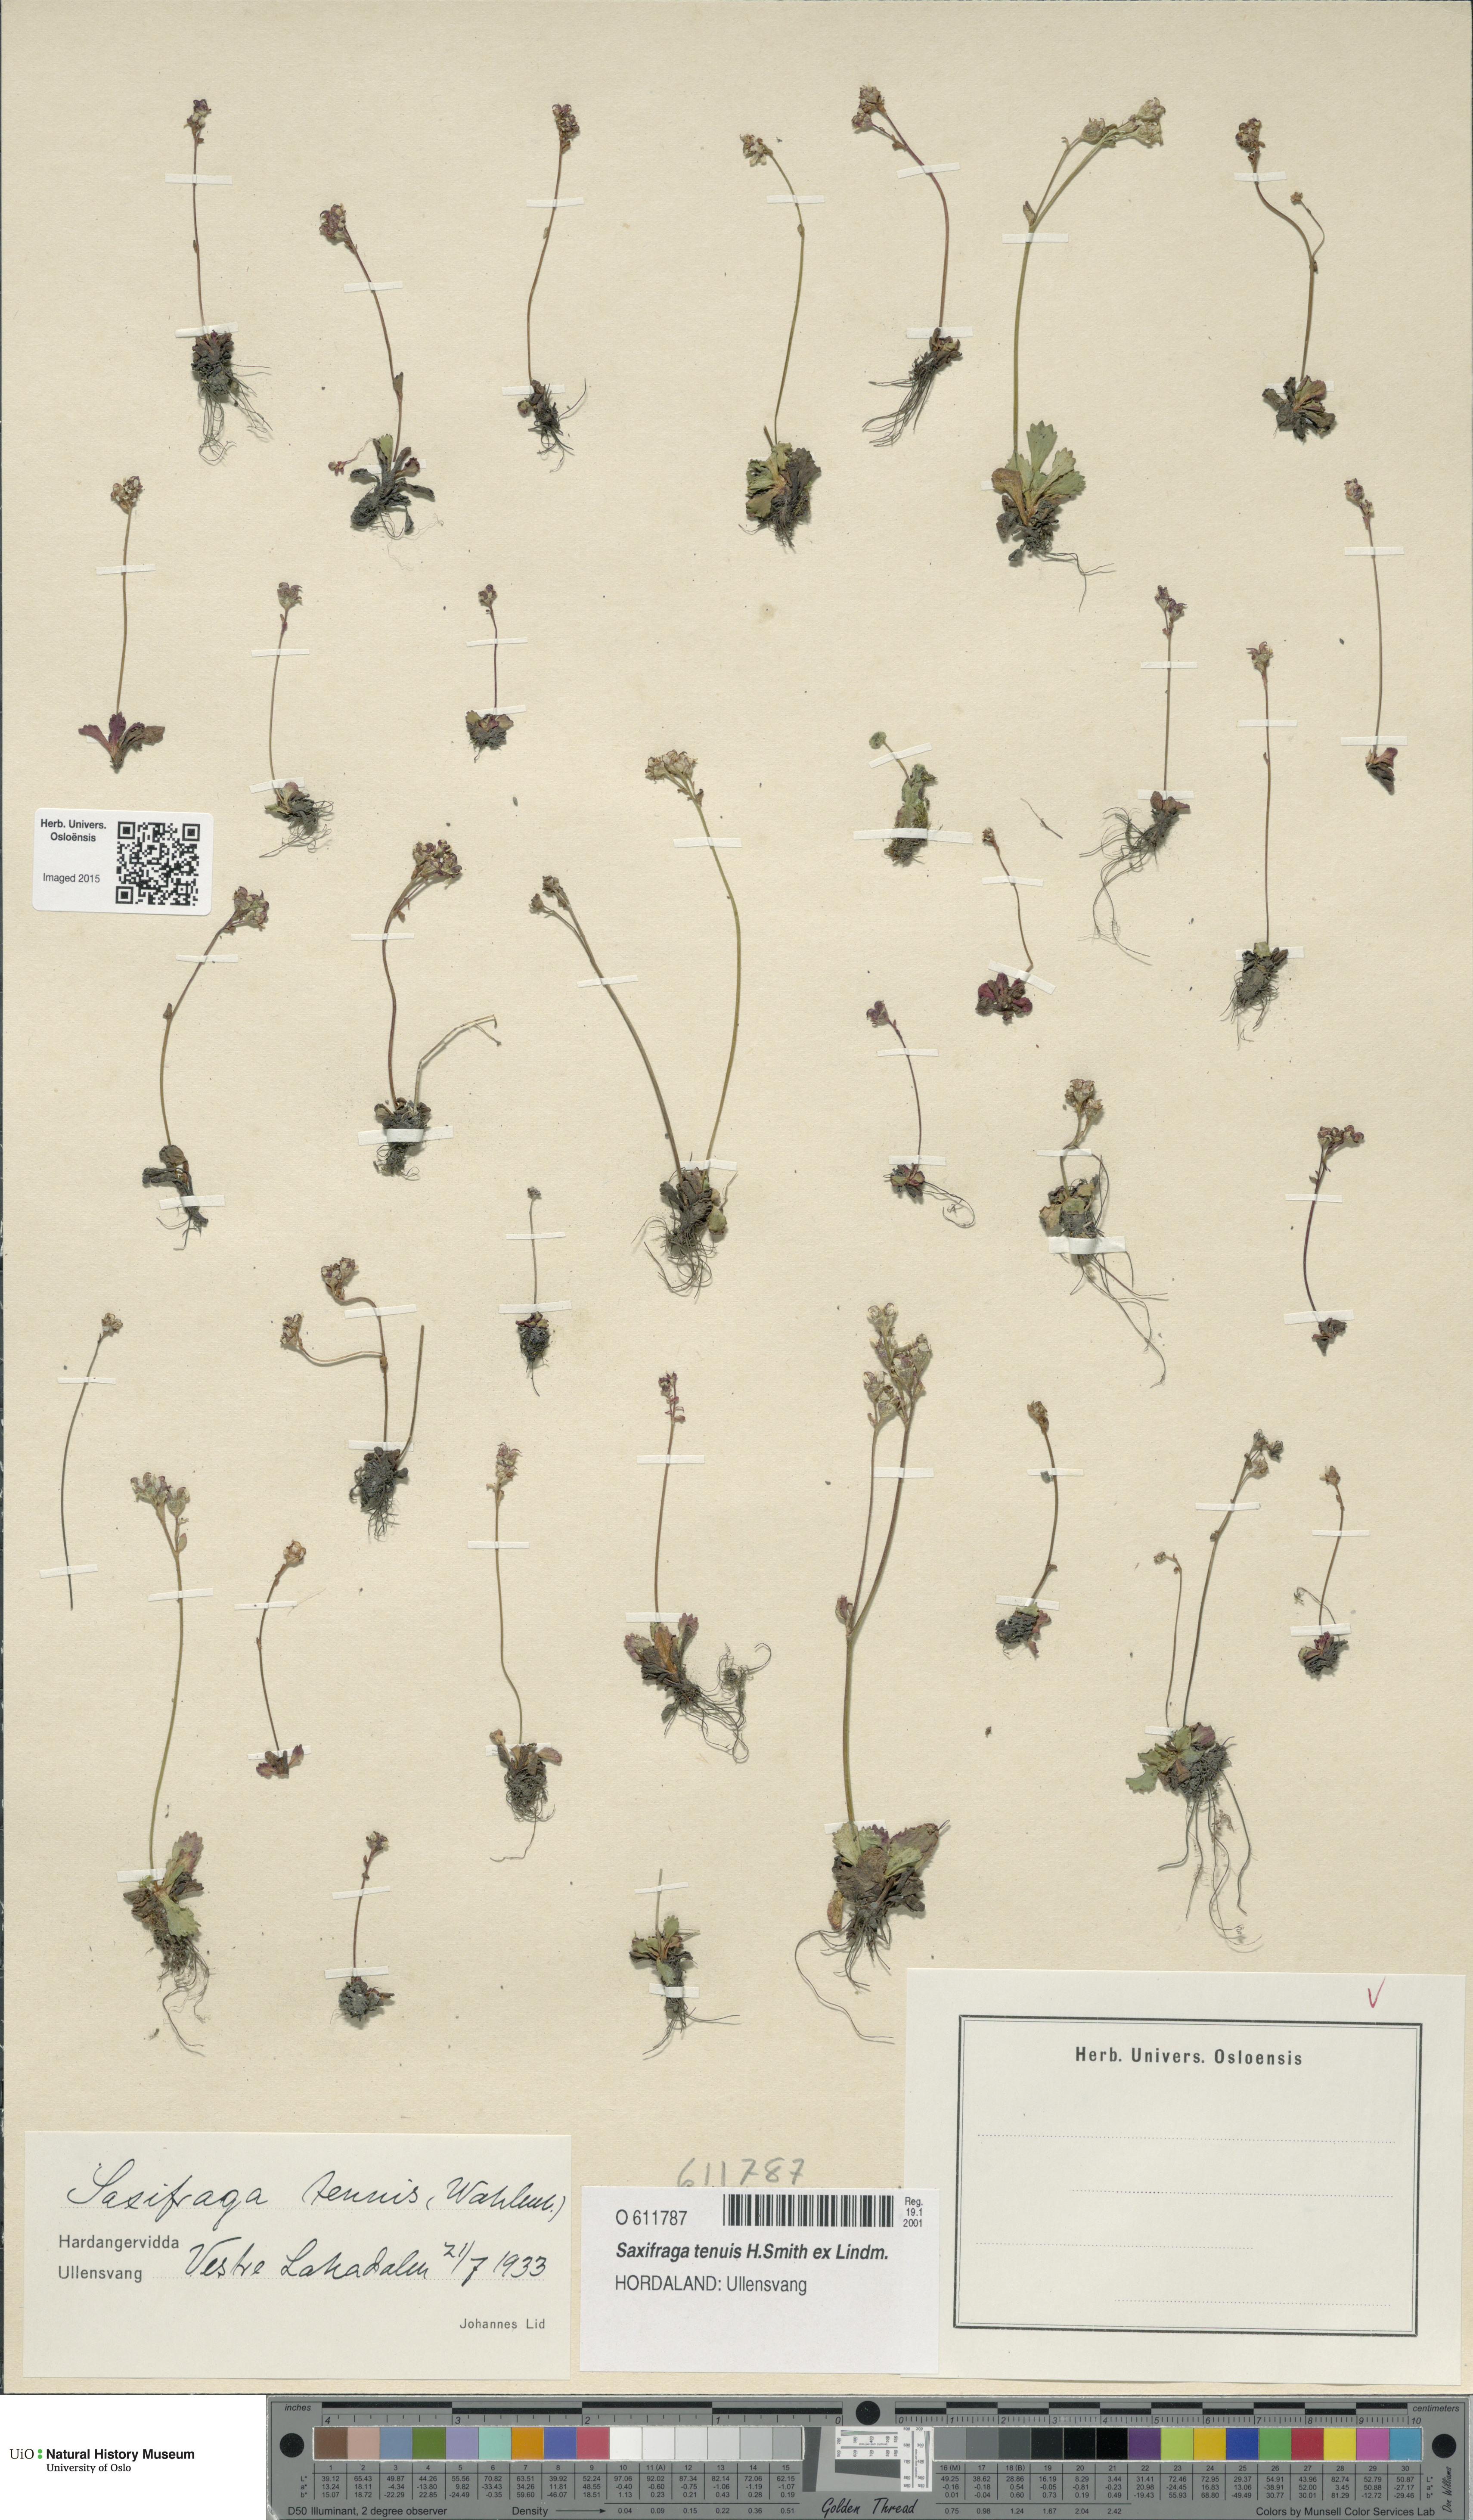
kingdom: Plantae
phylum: Tracheophyta
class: Magnoliopsida
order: Saxifragales
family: Saxifragaceae
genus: Micranthes
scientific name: Micranthes tenuis
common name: Ottertail pass saxifrage
